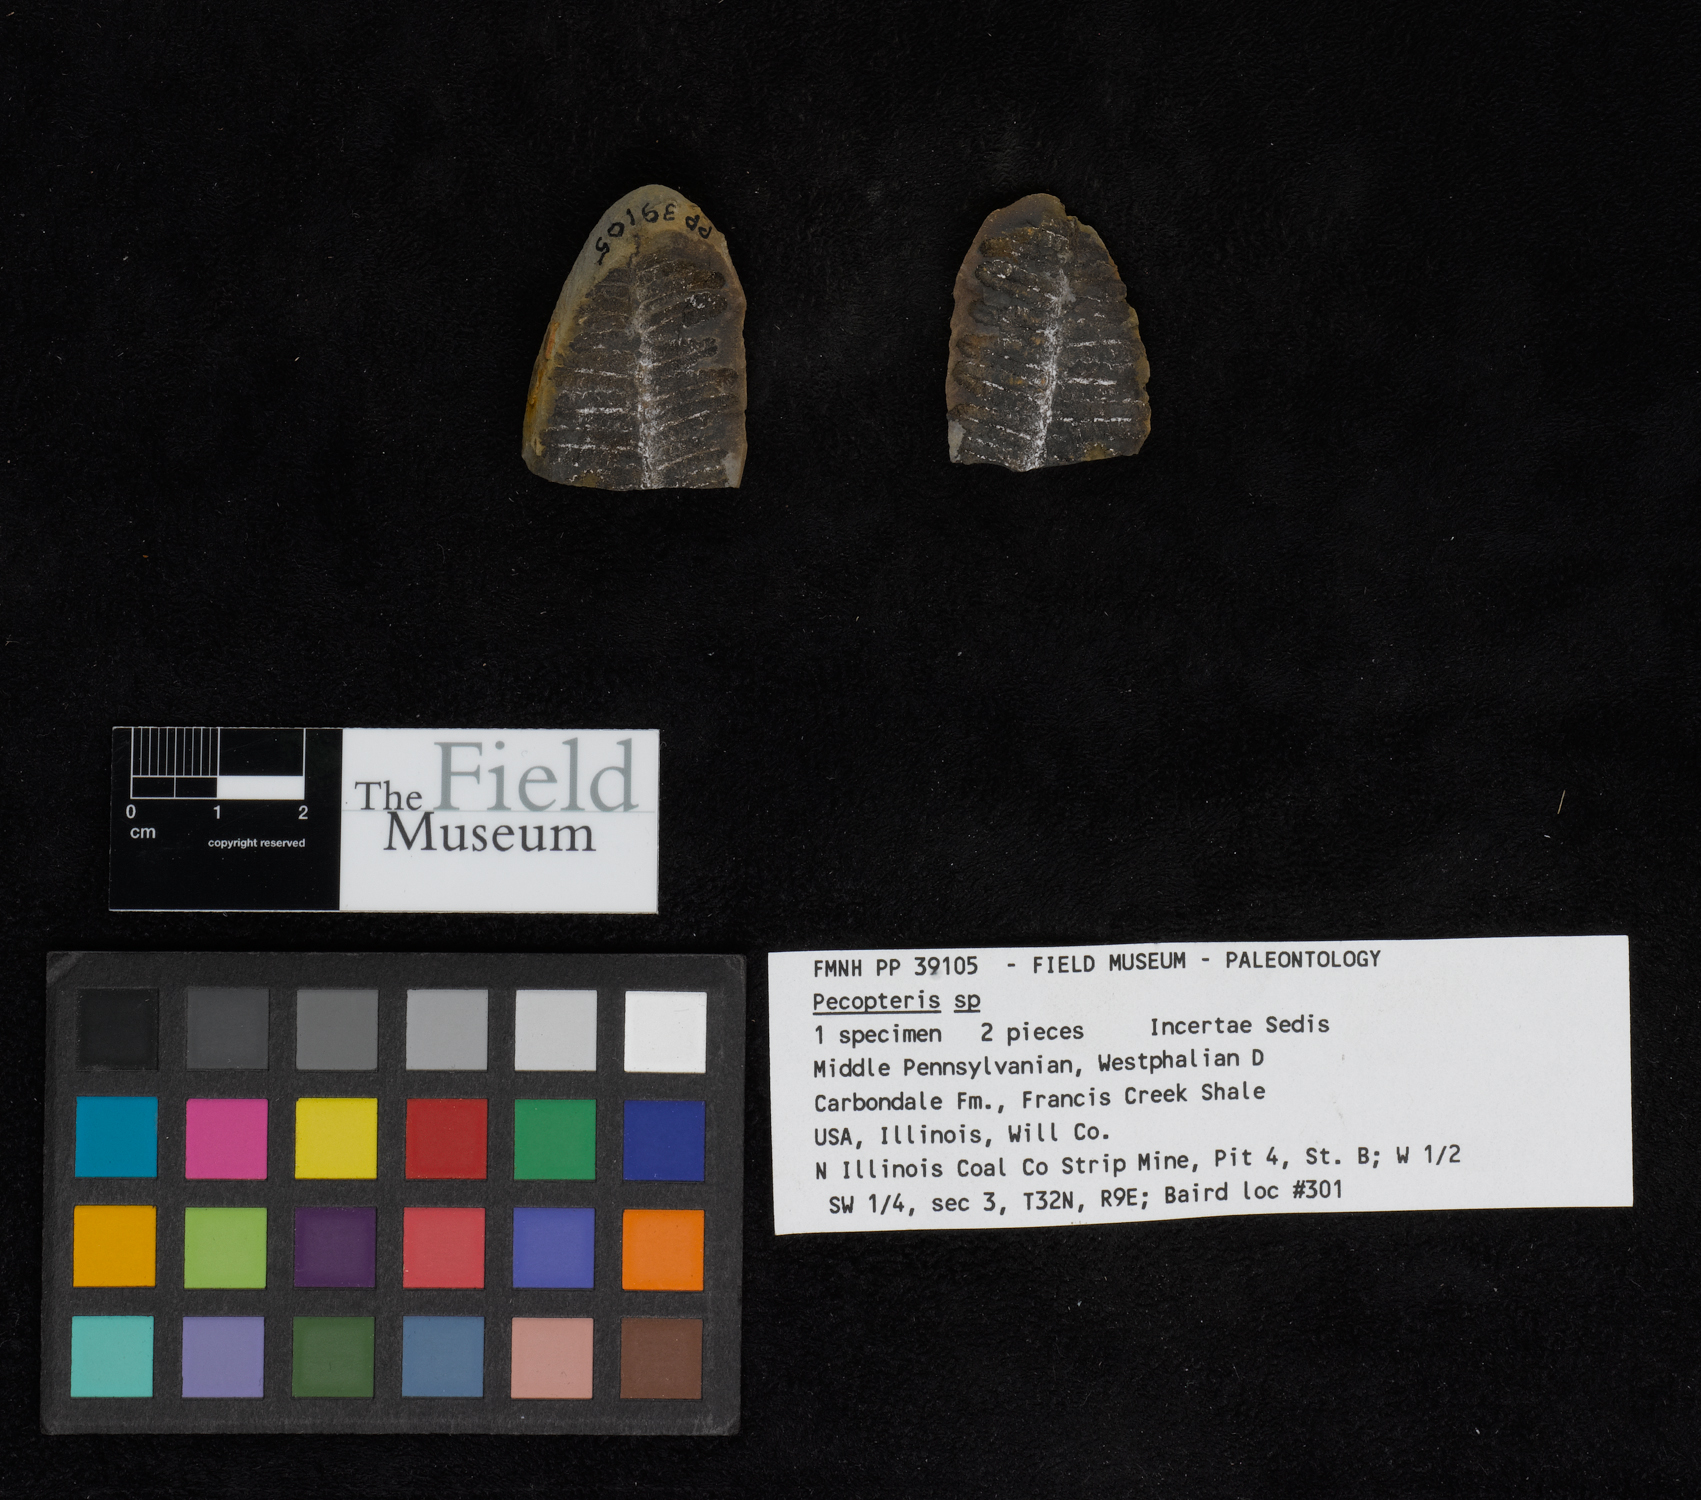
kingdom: Plantae
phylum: Tracheophyta
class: Polypodiopsida
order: Marattiales
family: Asterothecaceae
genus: Pecopteris
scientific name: Pecopteris
